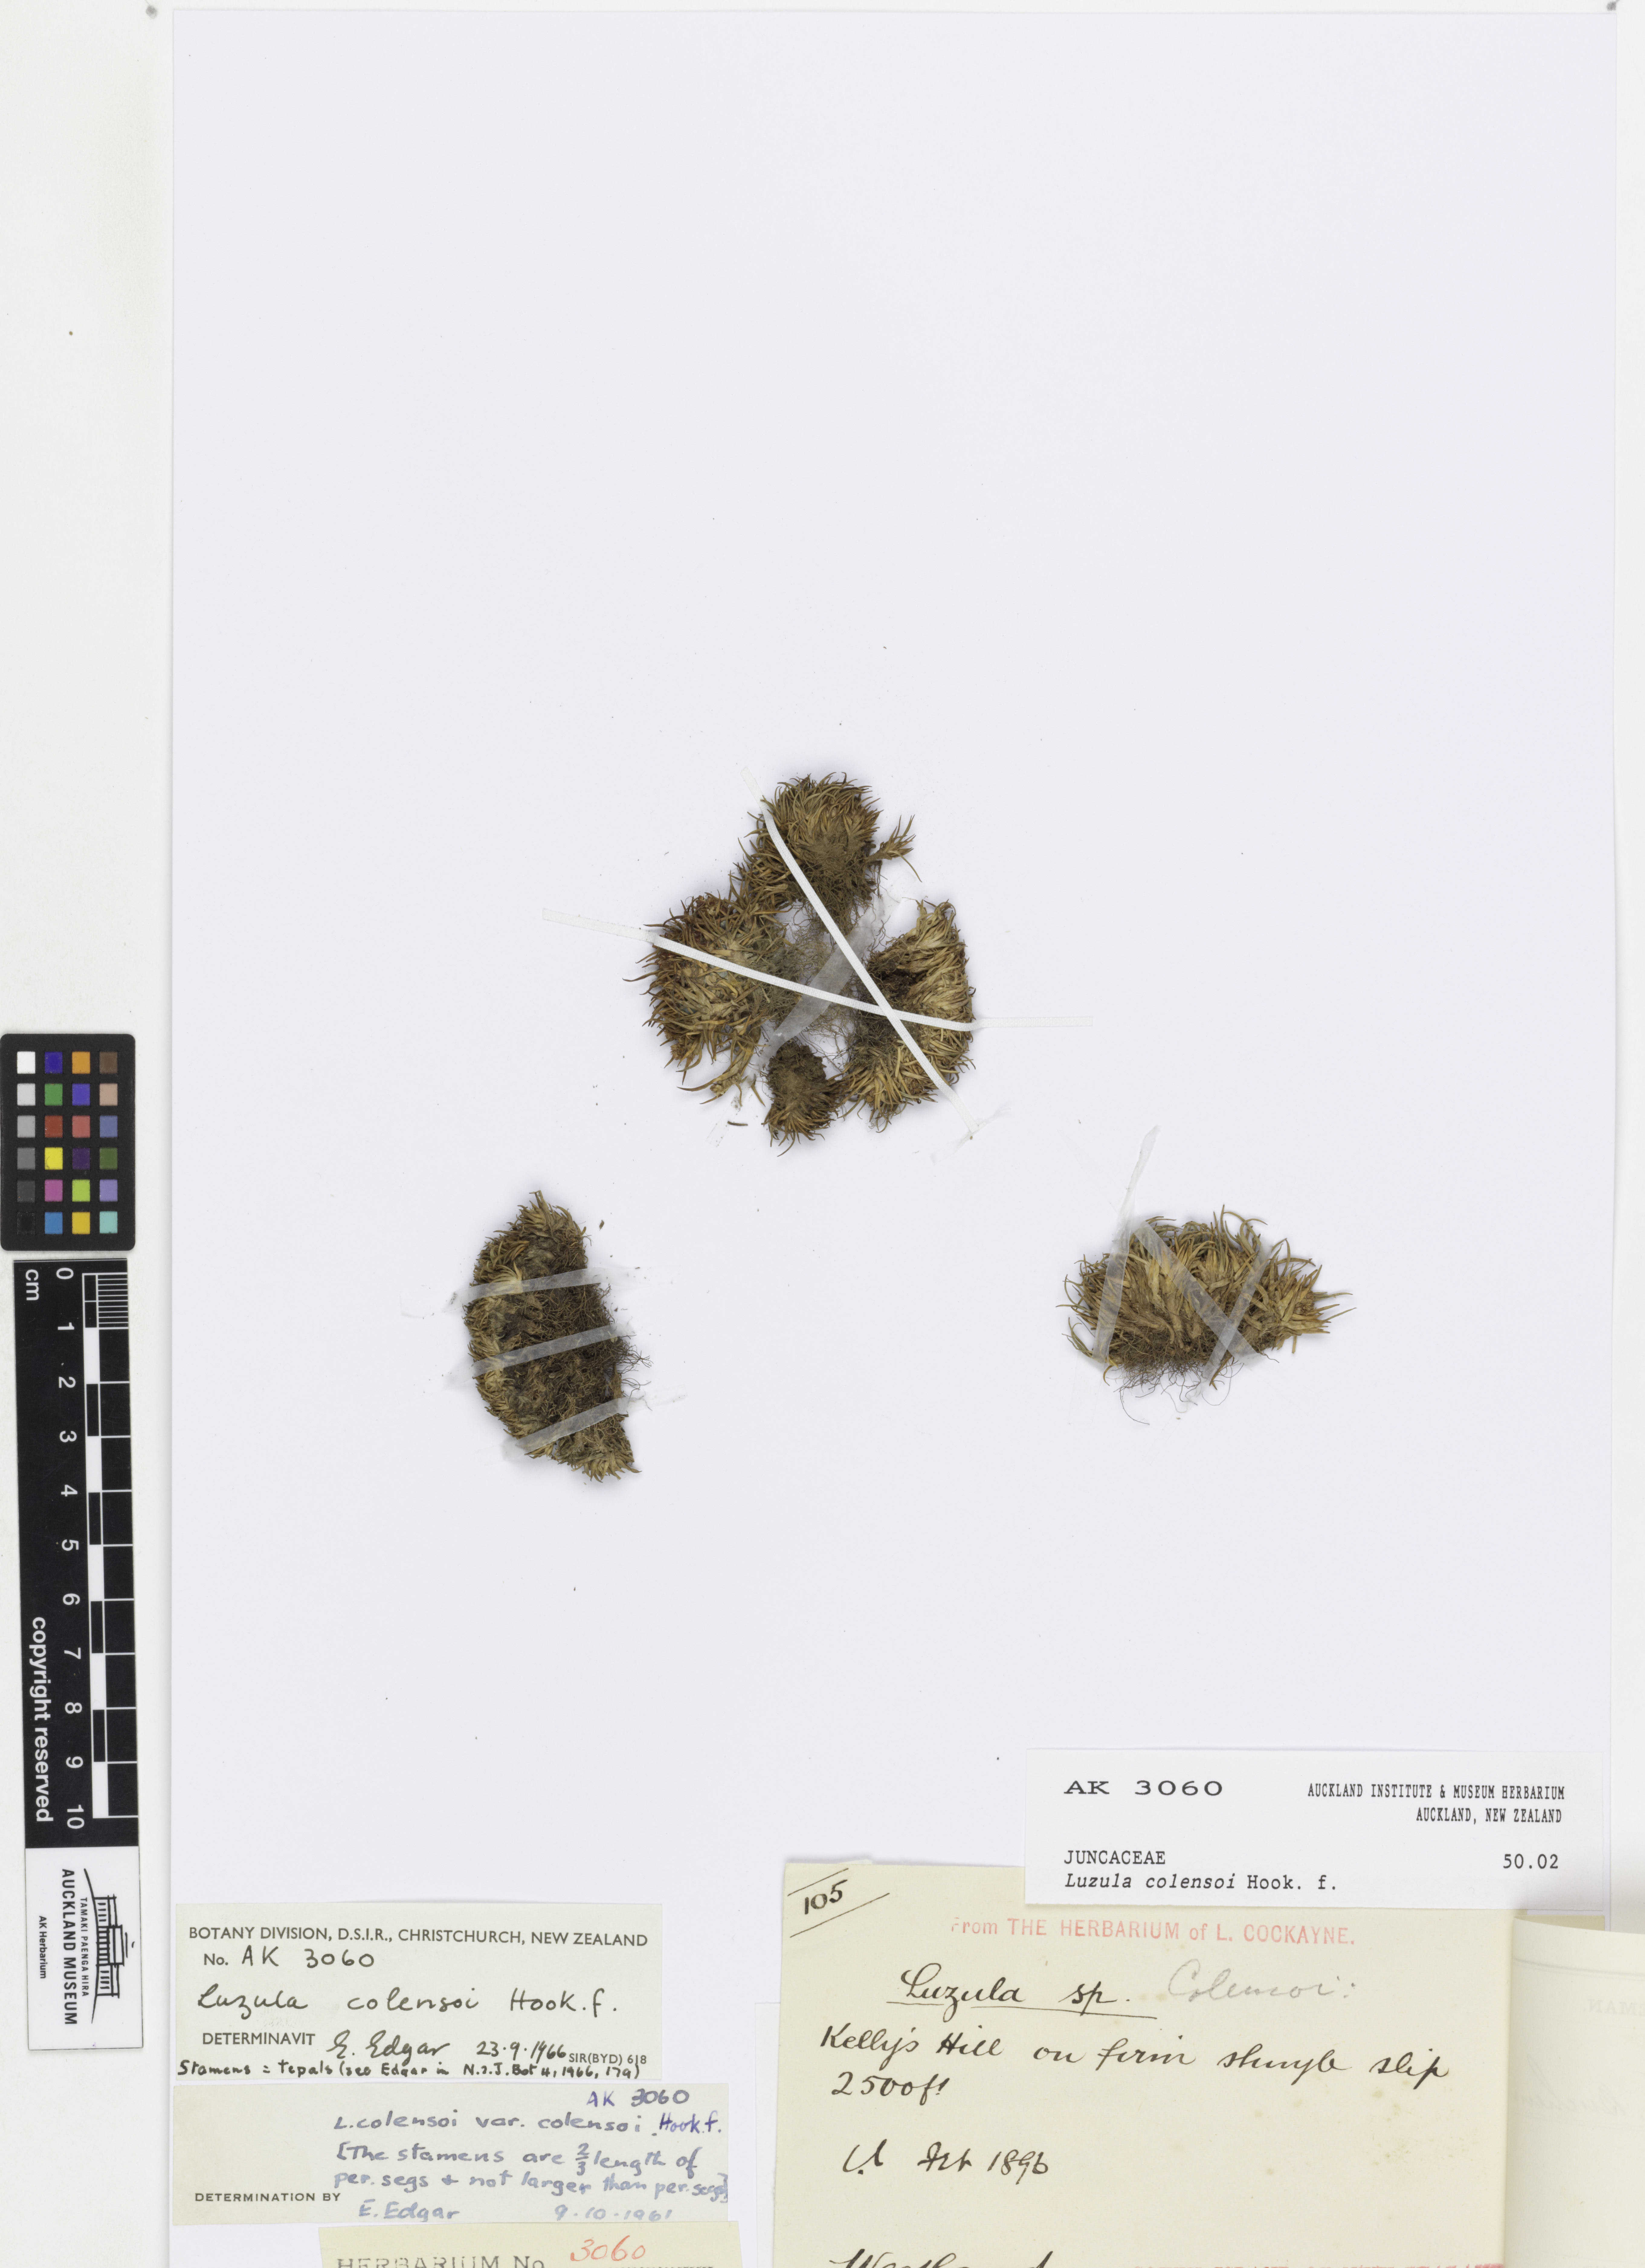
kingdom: Plantae
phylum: Tracheophyta
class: Liliopsida
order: Poales
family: Juncaceae
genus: Luzula
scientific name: Luzula colensoi
